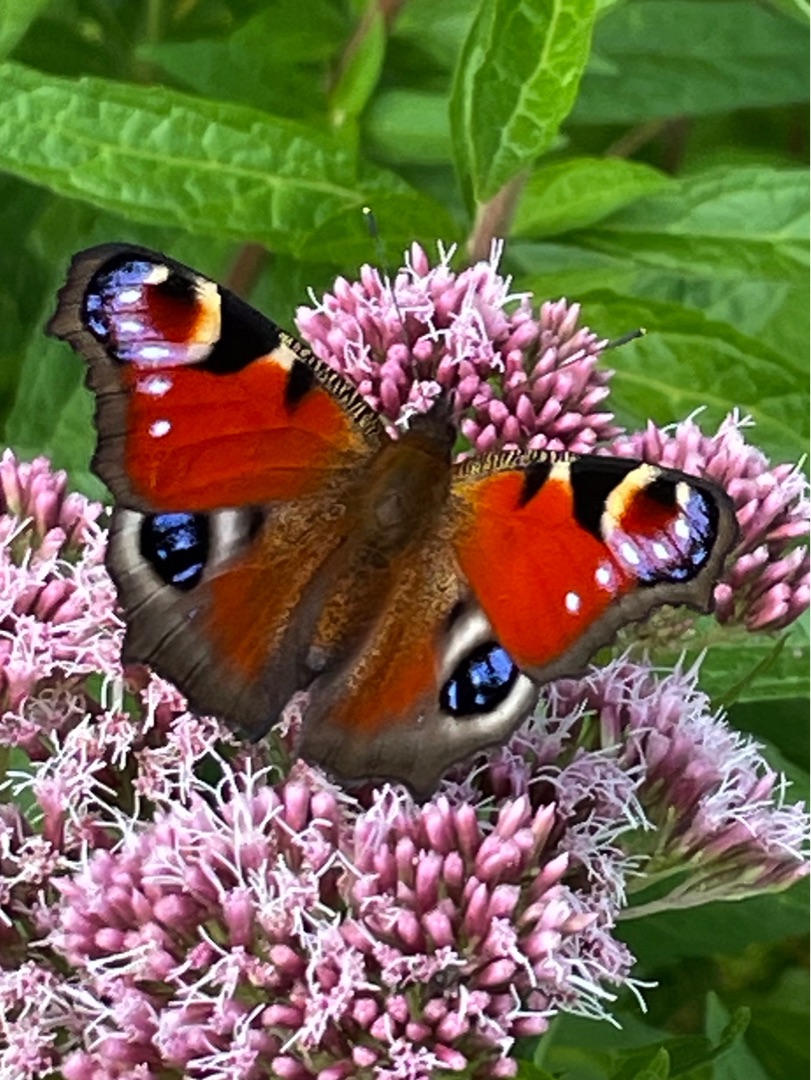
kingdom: Animalia
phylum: Arthropoda
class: Insecta
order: Lepidoptera
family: Nymphalidae
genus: Aglais
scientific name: Aglais io
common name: Dagpåfugleøje
